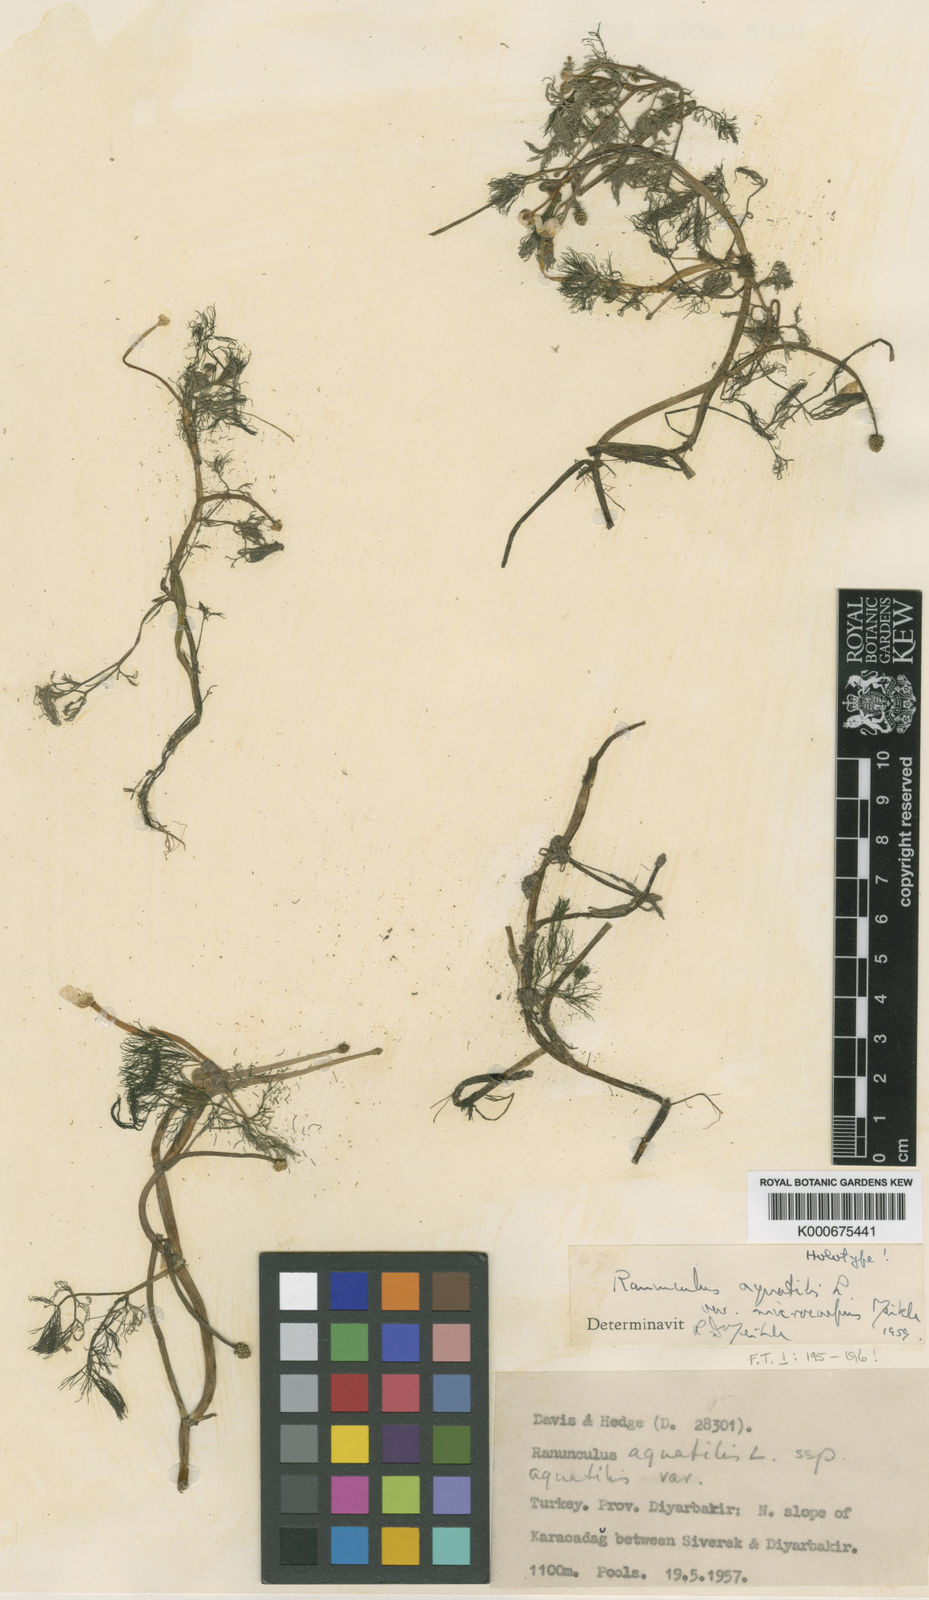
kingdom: Plantae
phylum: Tracheophyta
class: Magnoliopsida
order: Ranunculales
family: Ranunculaceae
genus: Ranunculus
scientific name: Ranunculus peltatus
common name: Pond water-crowfoot
